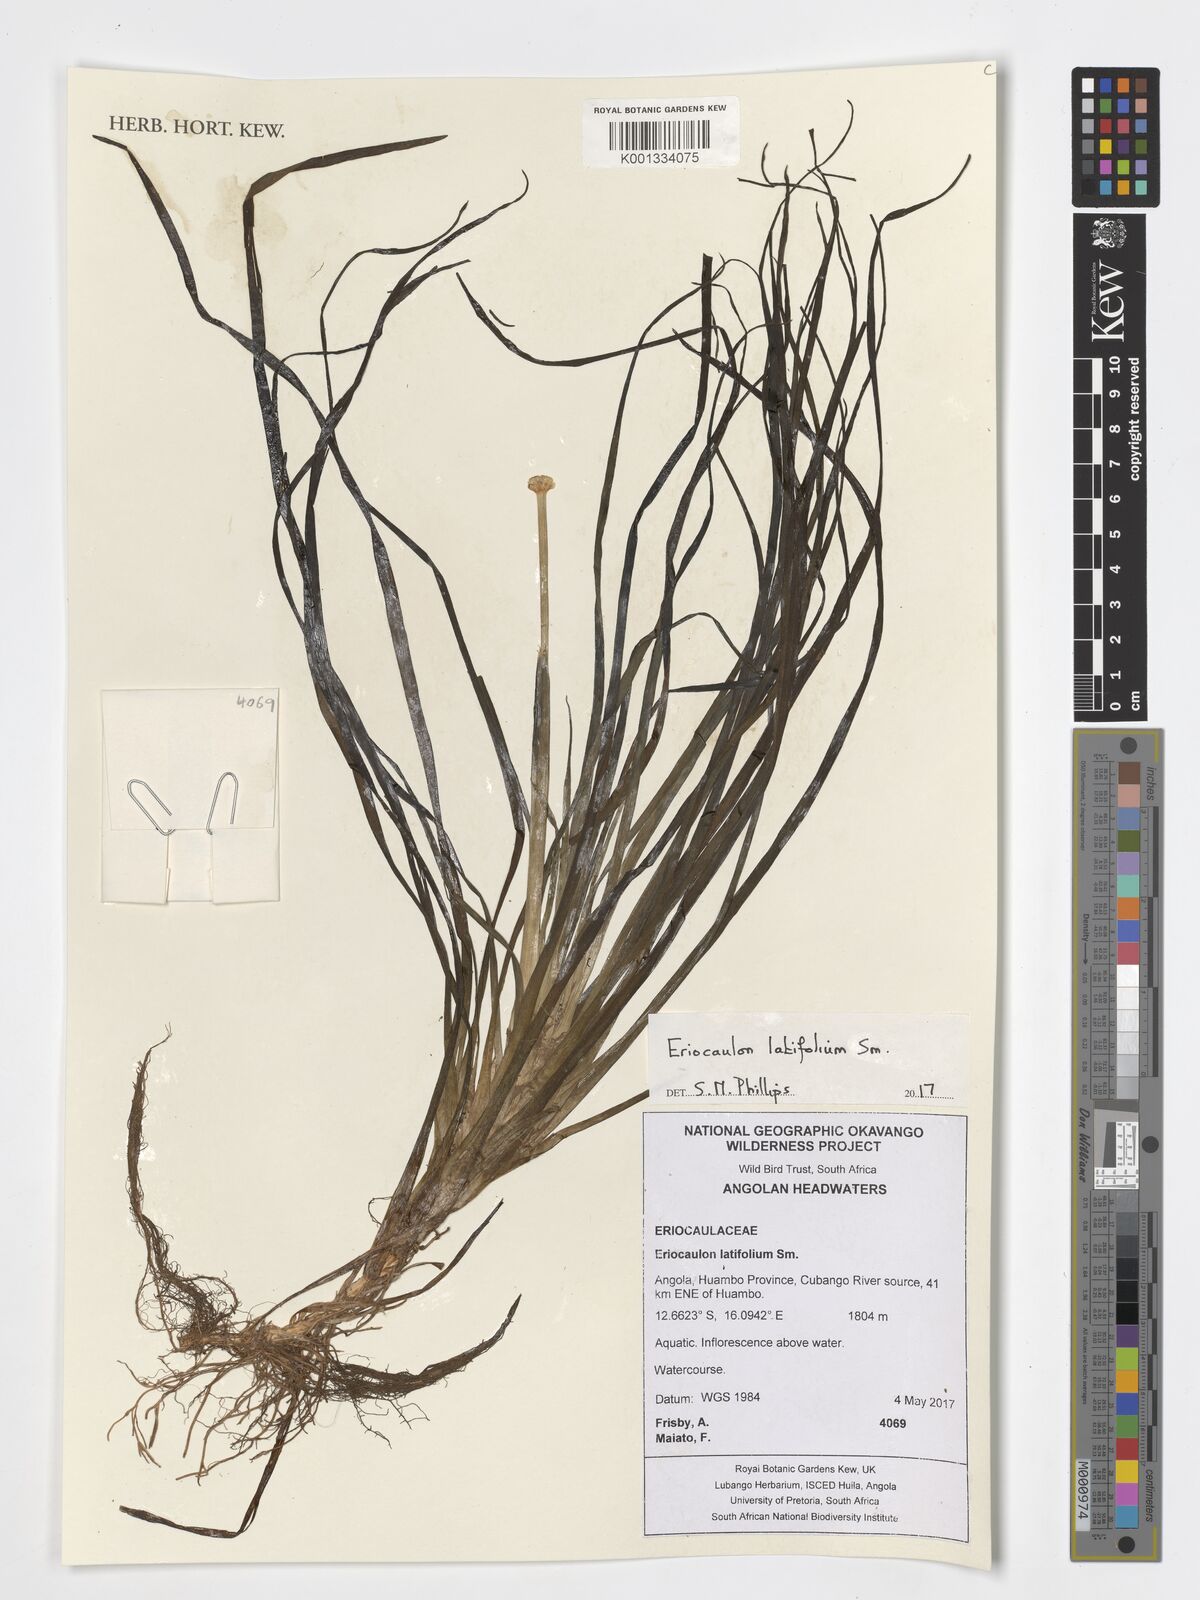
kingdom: Plantae
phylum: Tracheophyta
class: Liliopsida
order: Poales
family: Eriocaulaceae
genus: Eriocaulon
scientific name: Eriocaulon latifolium
